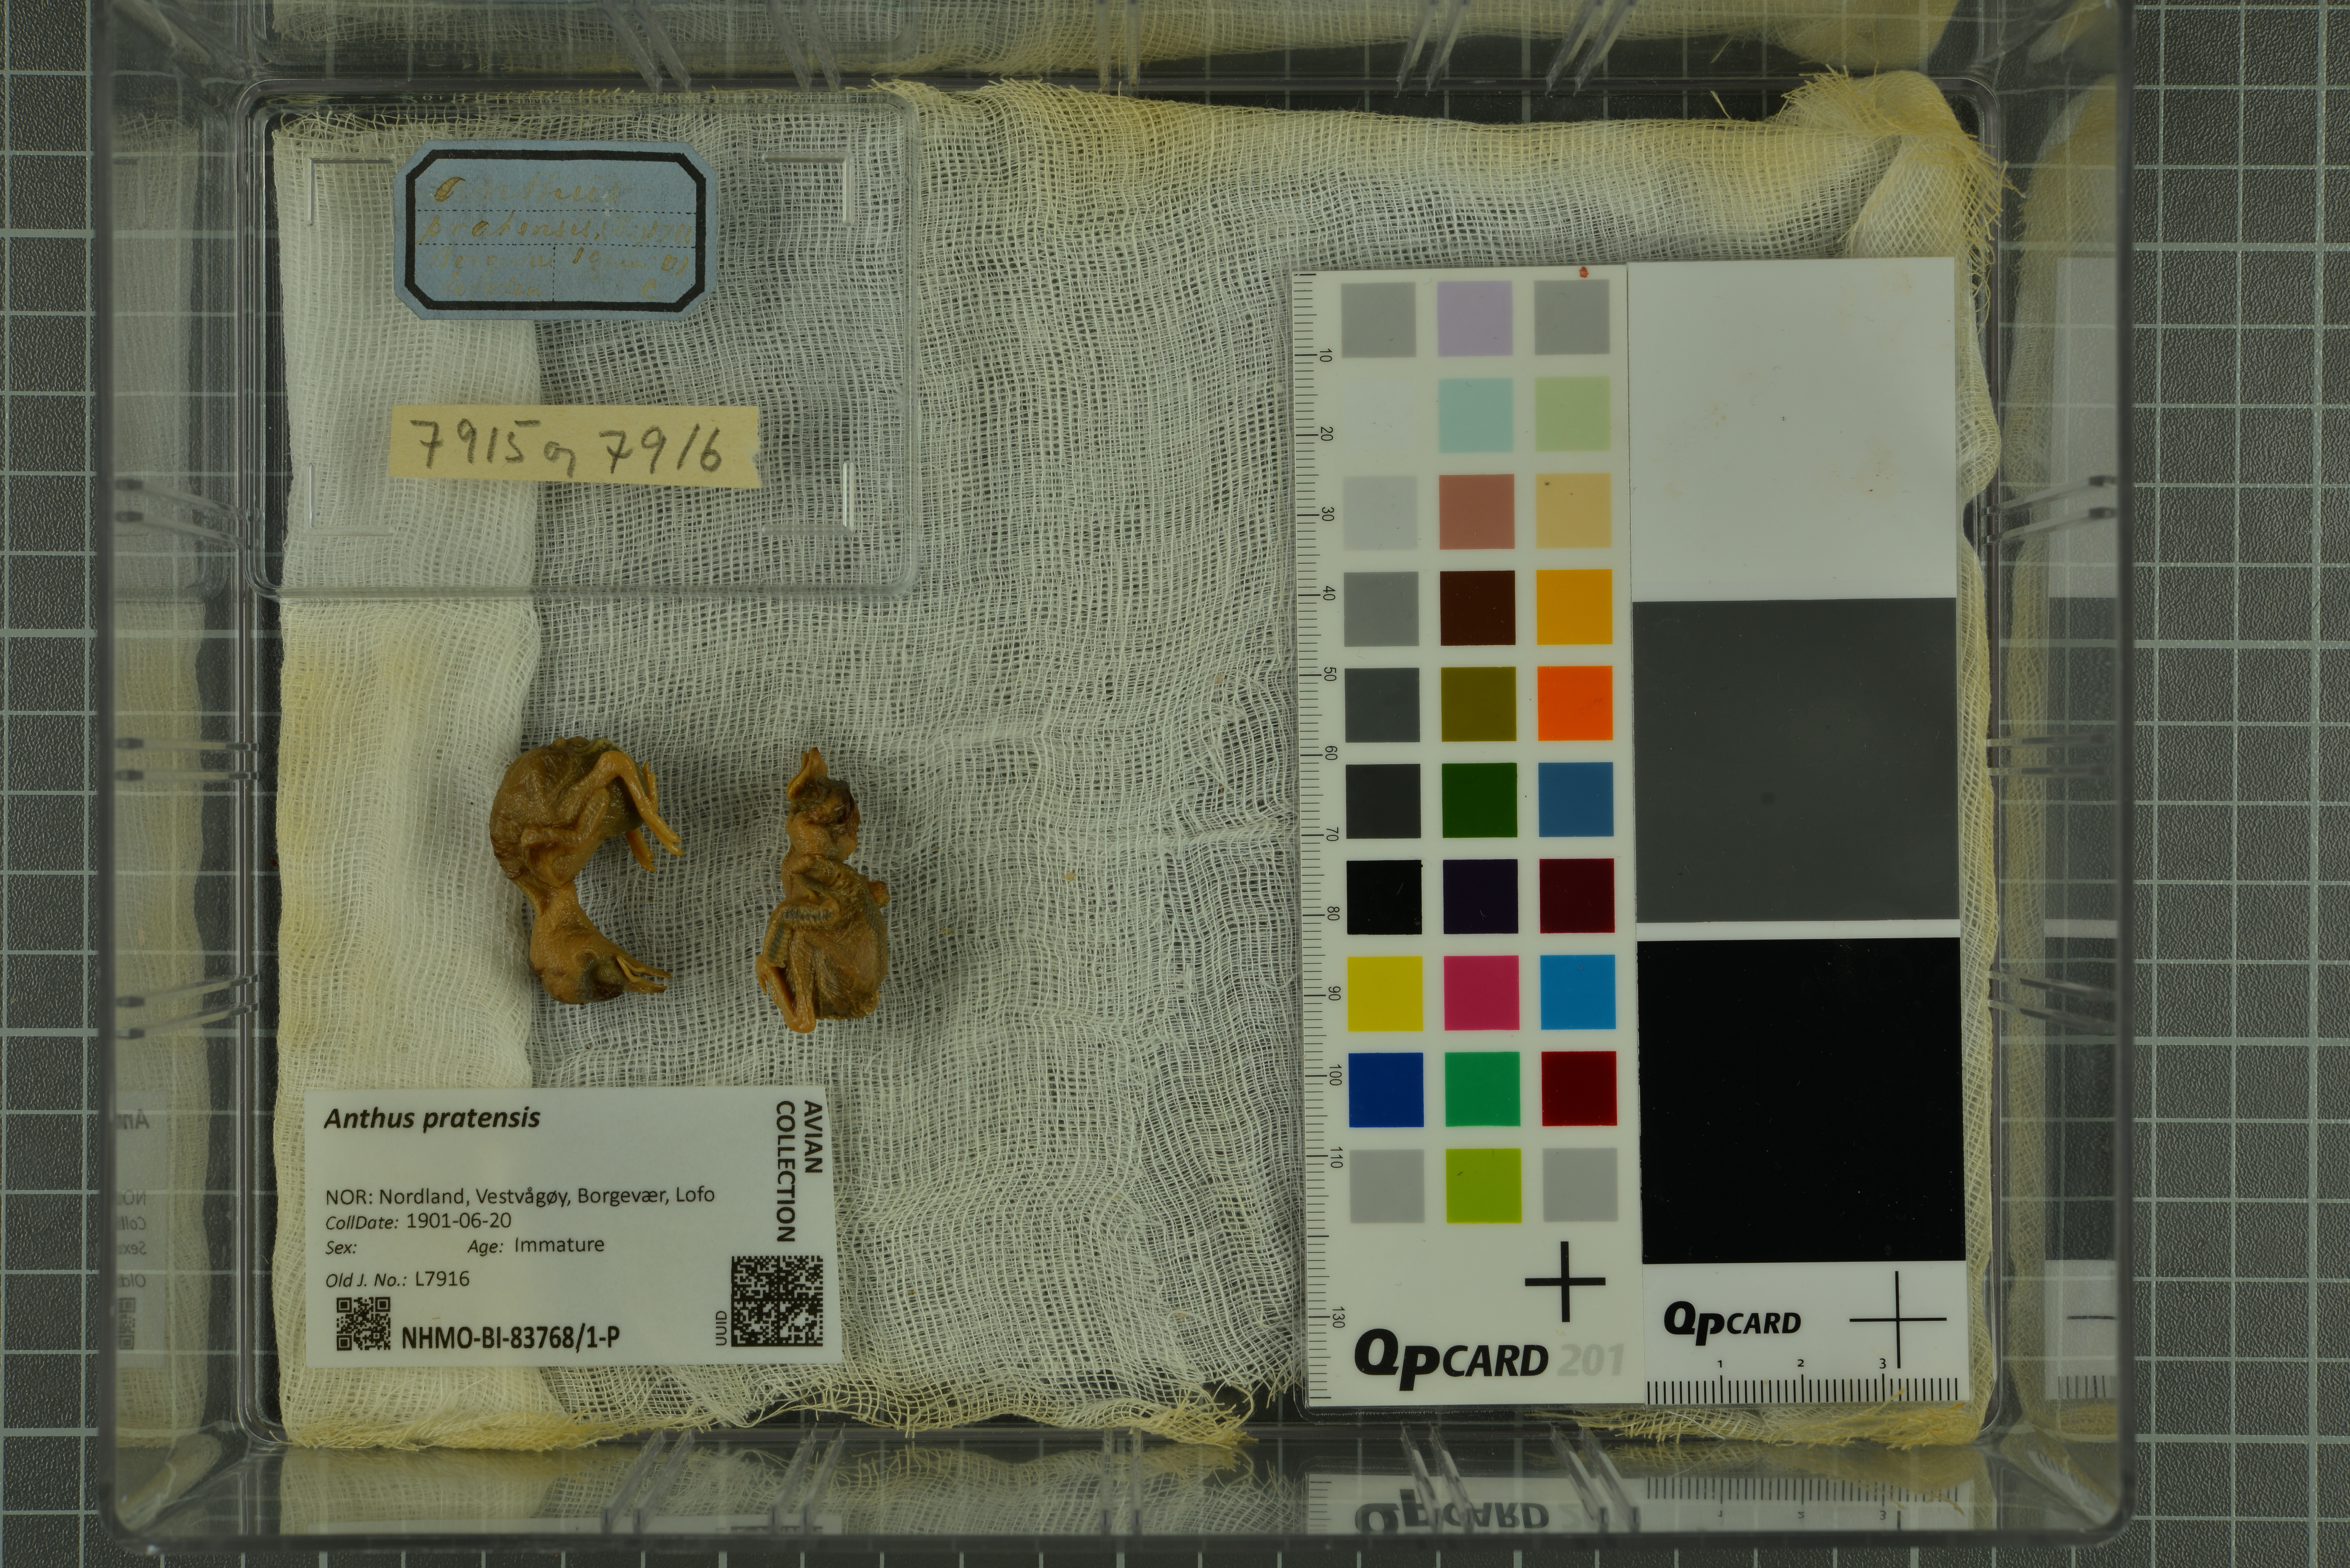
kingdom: Animalia
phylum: Chordata
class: Aves
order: Passeriformes
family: Motacillidae
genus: Anthus
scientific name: Anthus pratensis
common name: Meadow pipit
